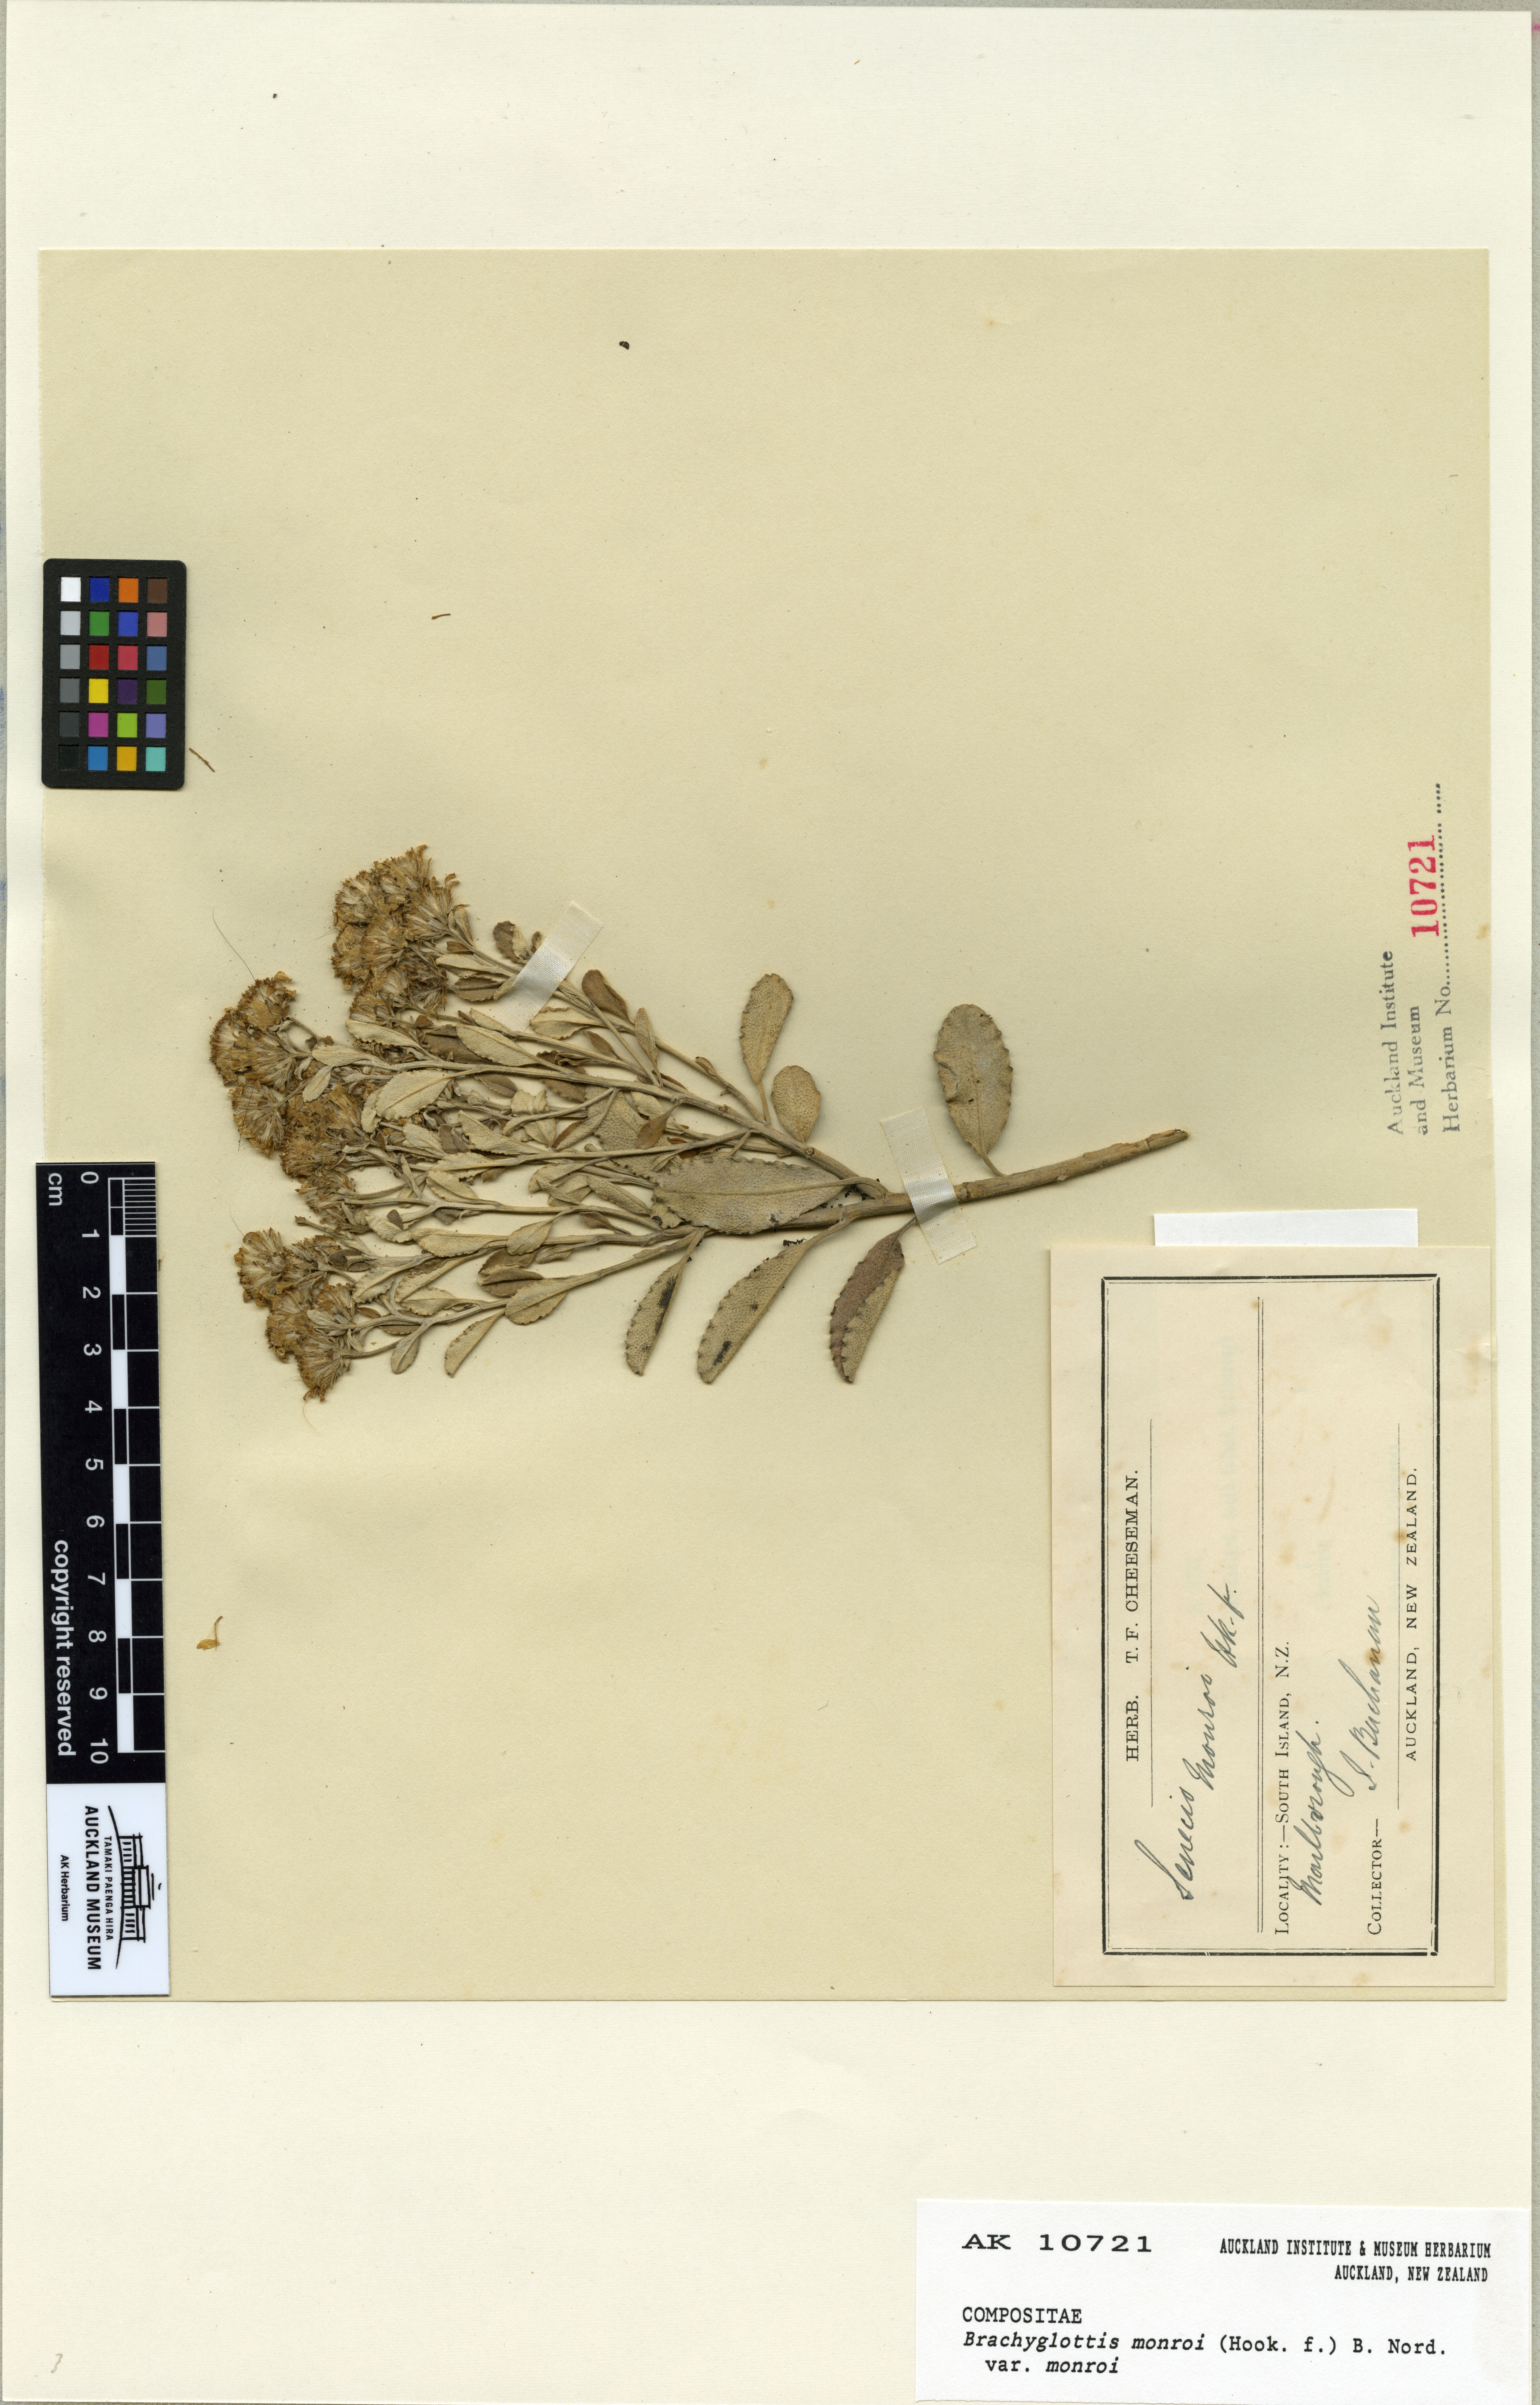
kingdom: Plantae
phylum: Tracheophyta
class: Magnoliopsida
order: Asterales
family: Asteraceae
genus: Brachyglottis
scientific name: Brachyglottis monroi
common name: Monro's ragwort
